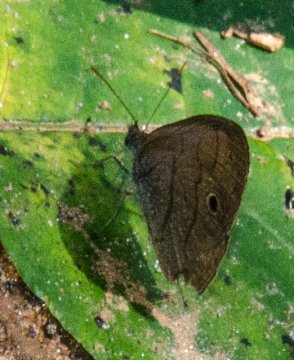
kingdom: Animalia
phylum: Arthropoda
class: Insecta
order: Lepidoptera
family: Nymphalidae
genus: Hermeuptychia
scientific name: Hermeuptychia hermes
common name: Carolina Satyr
